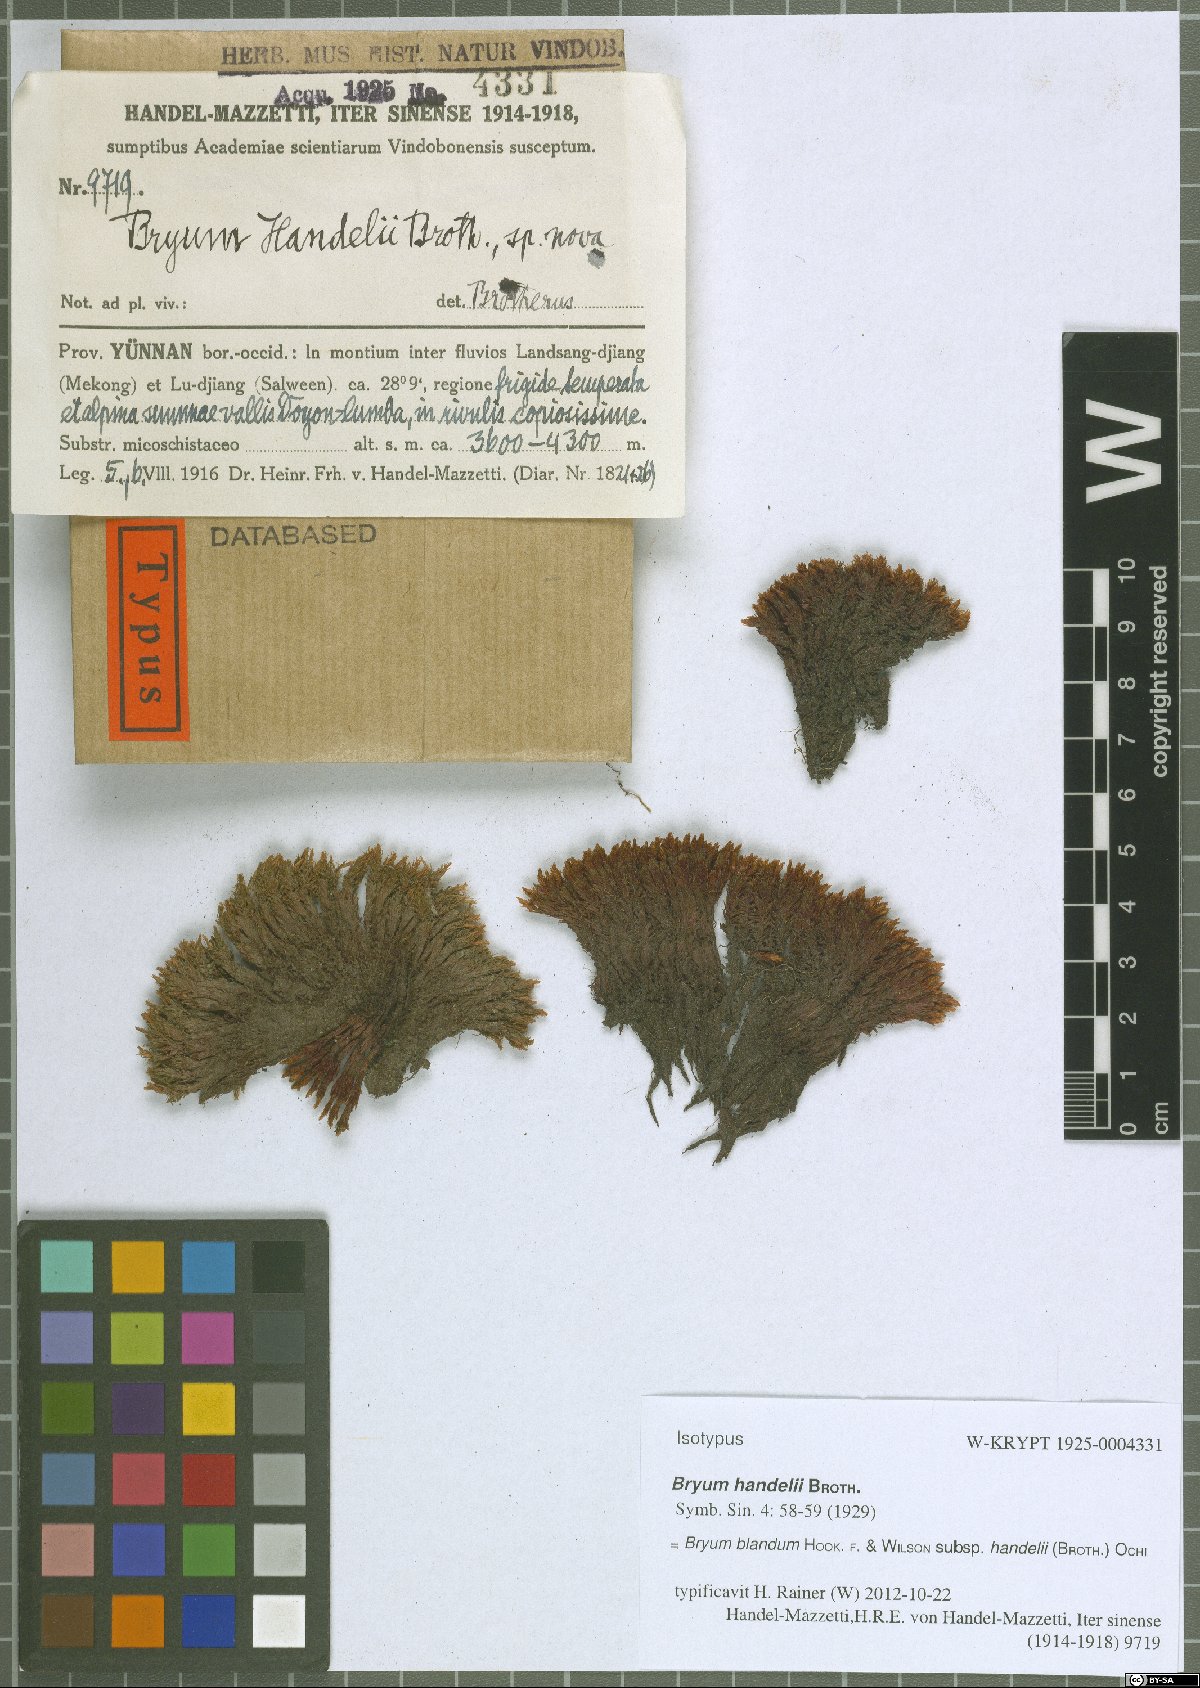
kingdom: Plantae
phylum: Bryophyta
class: Bryopsida
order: Bryales
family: Bryaceae
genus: Ochiobryum
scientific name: Ochiobryum handelii
